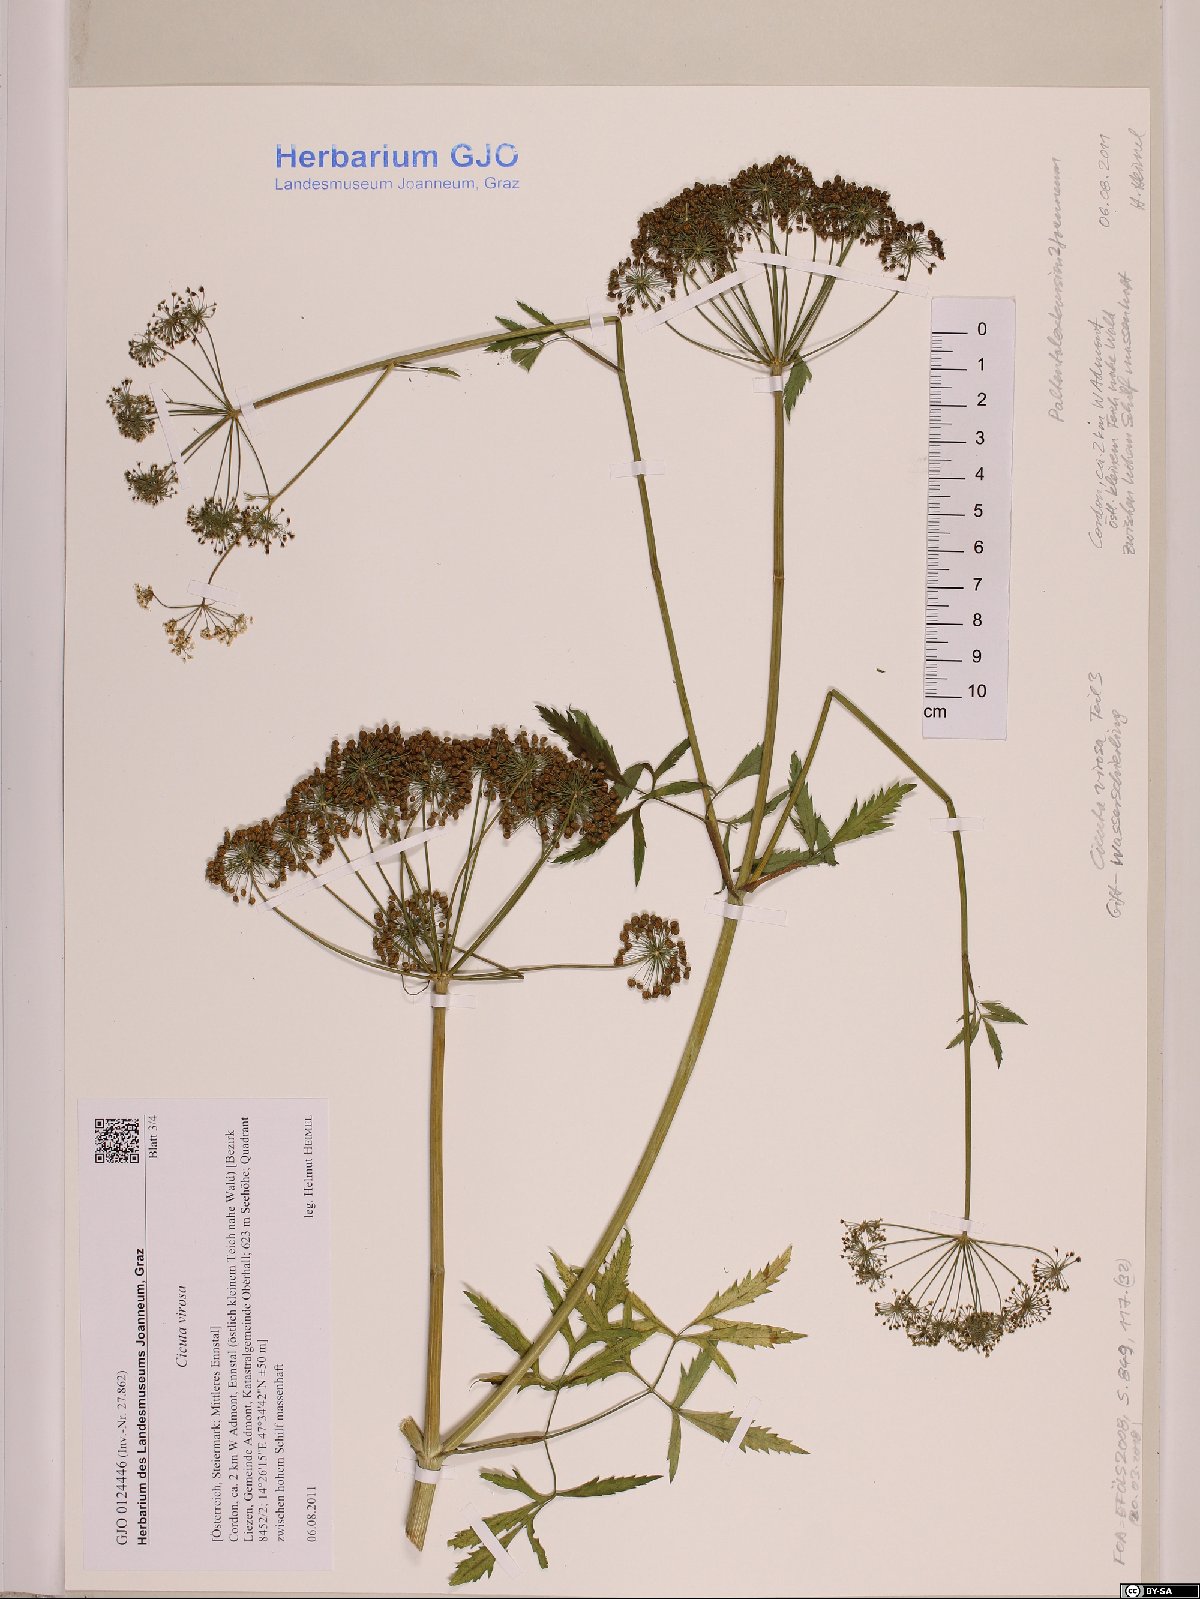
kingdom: Plantae
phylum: Tracheophyta
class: Magnoliopsida
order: Apiales
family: Apiaceae
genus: Cicuta
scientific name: Cicuta virosa
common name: Cowbane
